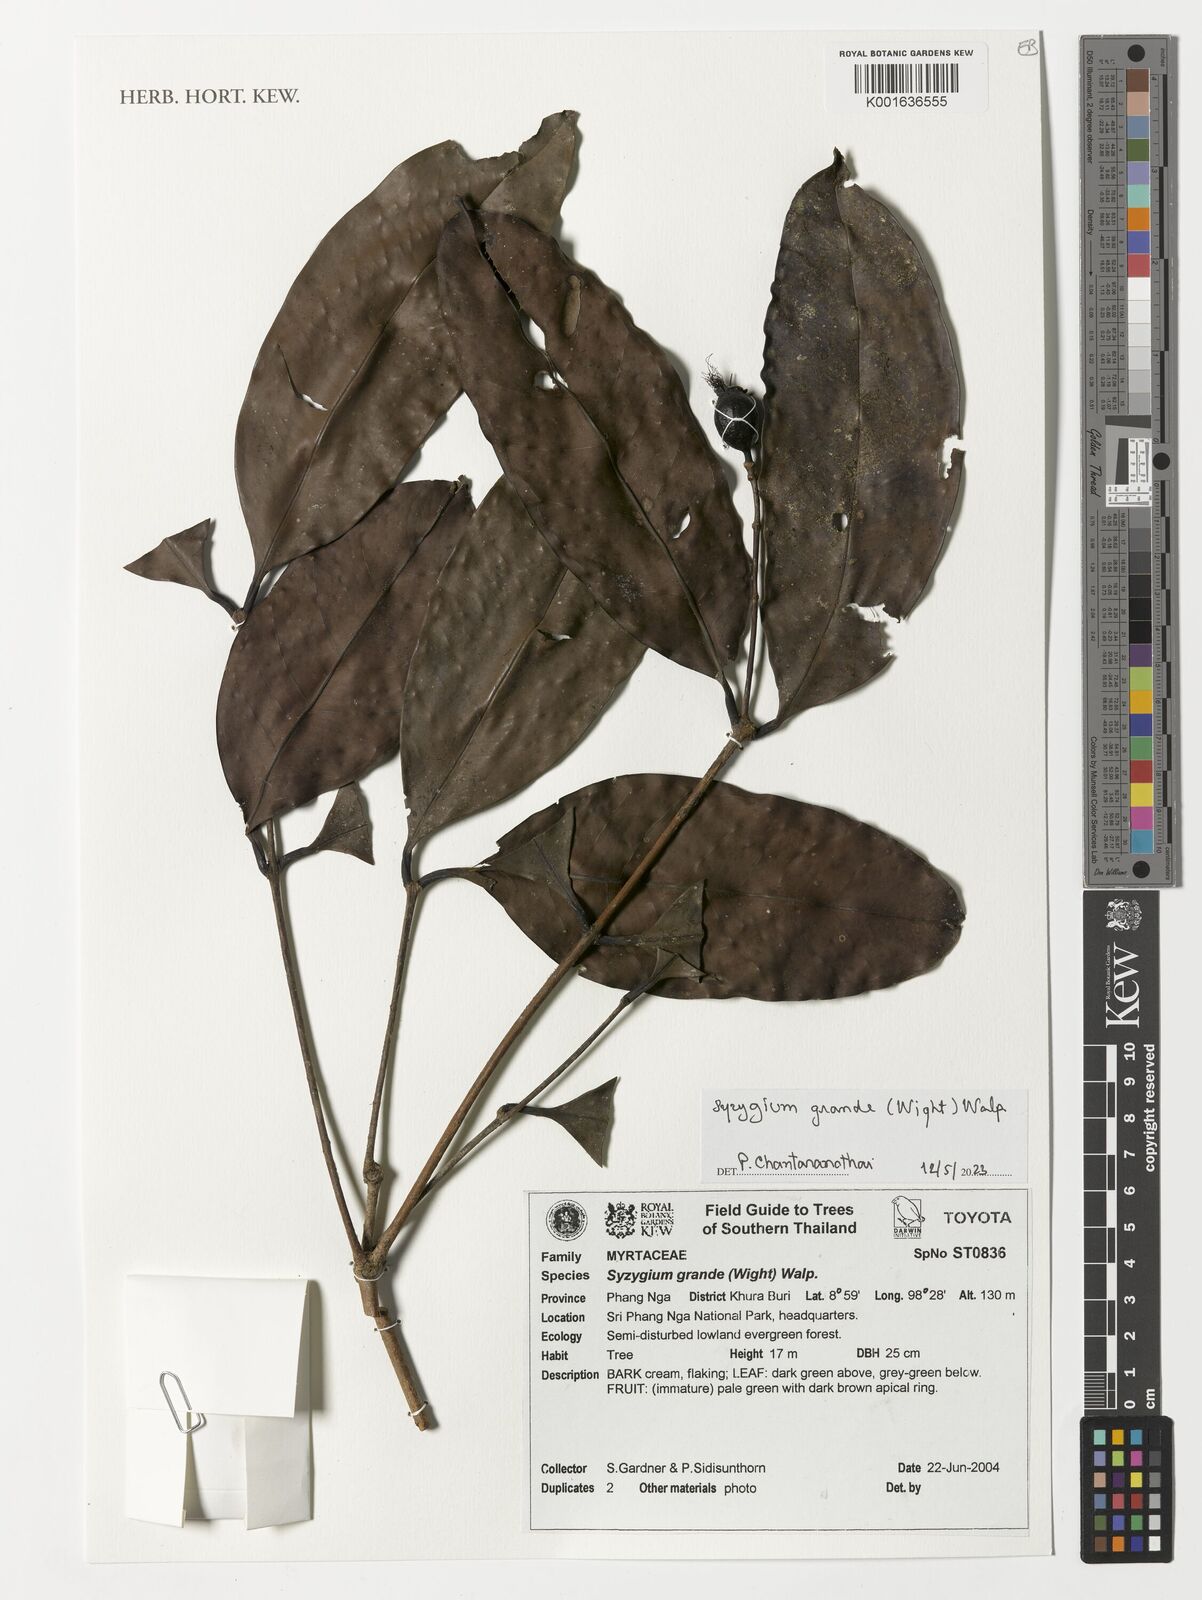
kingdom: Plantae
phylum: Tracheophyta
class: Magnoliopsida
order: Myrtales
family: Myrtaceae
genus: Syzygium
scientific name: Syzygium grande
